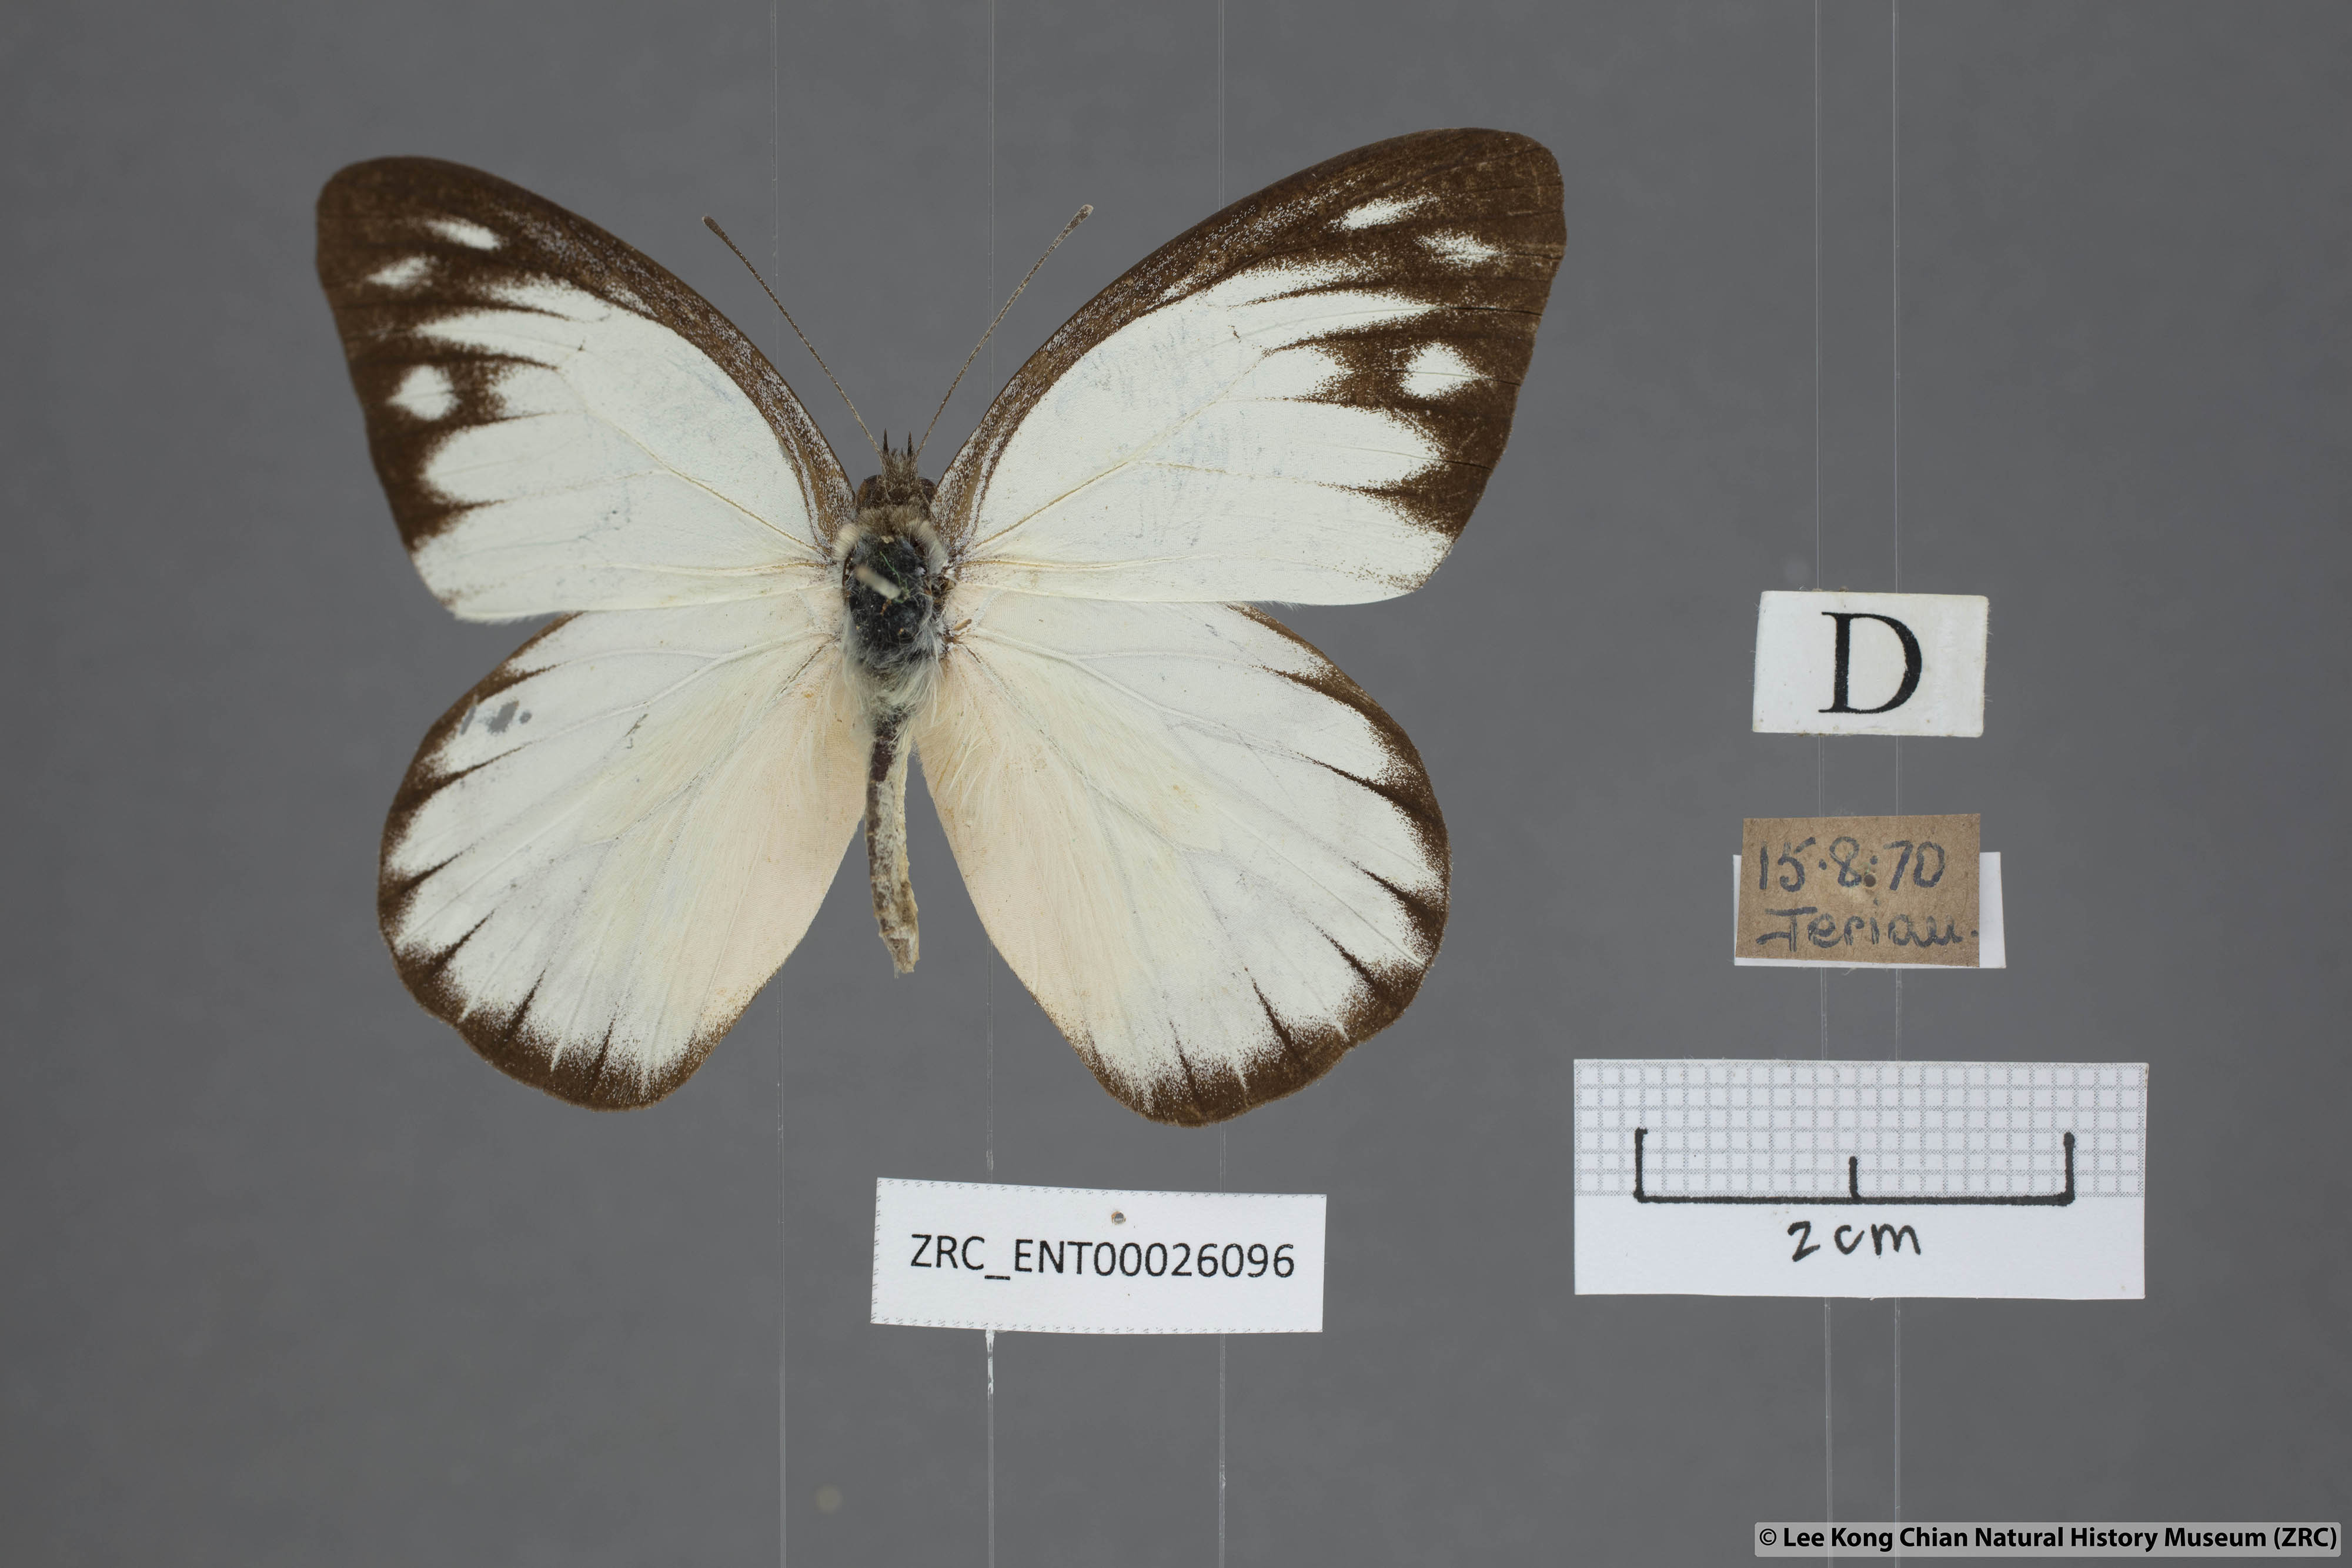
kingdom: Animalia
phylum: Arthropoda
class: Insecta
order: Lepidoptera
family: Pieridae
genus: Appias
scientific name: Appias cardena
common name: Yellow puffin
